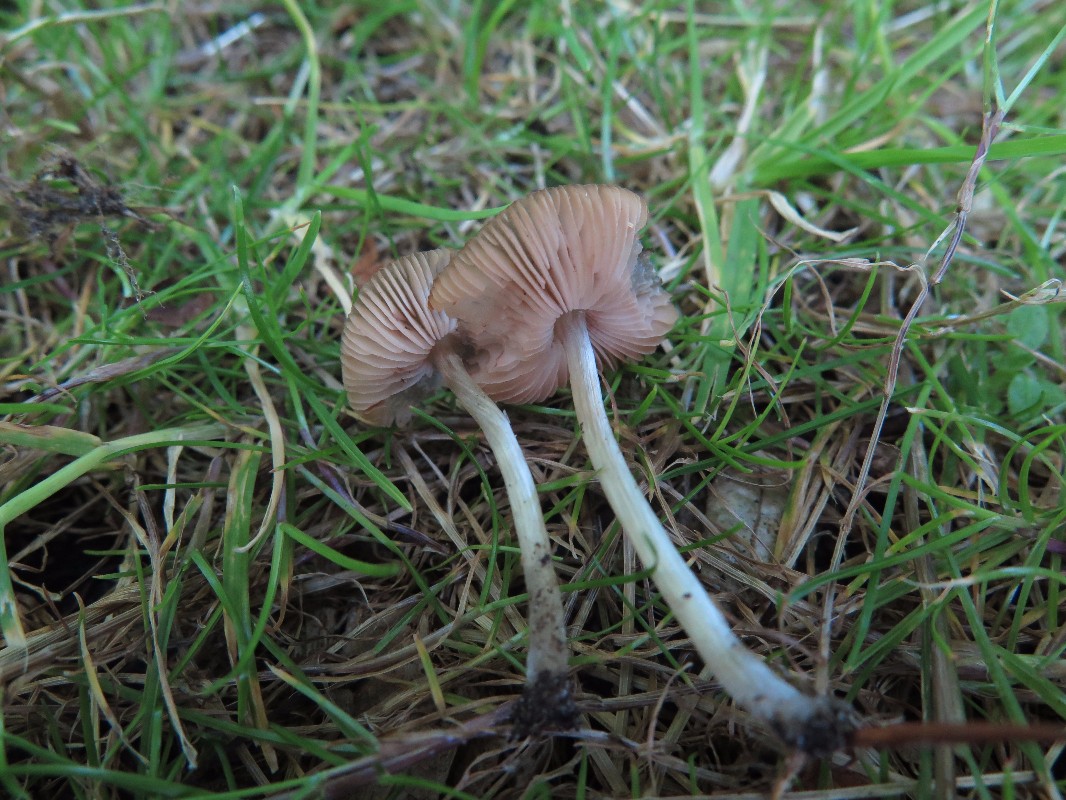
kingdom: Fungi
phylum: Basidiomycota
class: Agaricomycetes
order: Agaricales
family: Pluteaceae
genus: Pluteus
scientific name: Pluteus
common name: pudret skærmhat
